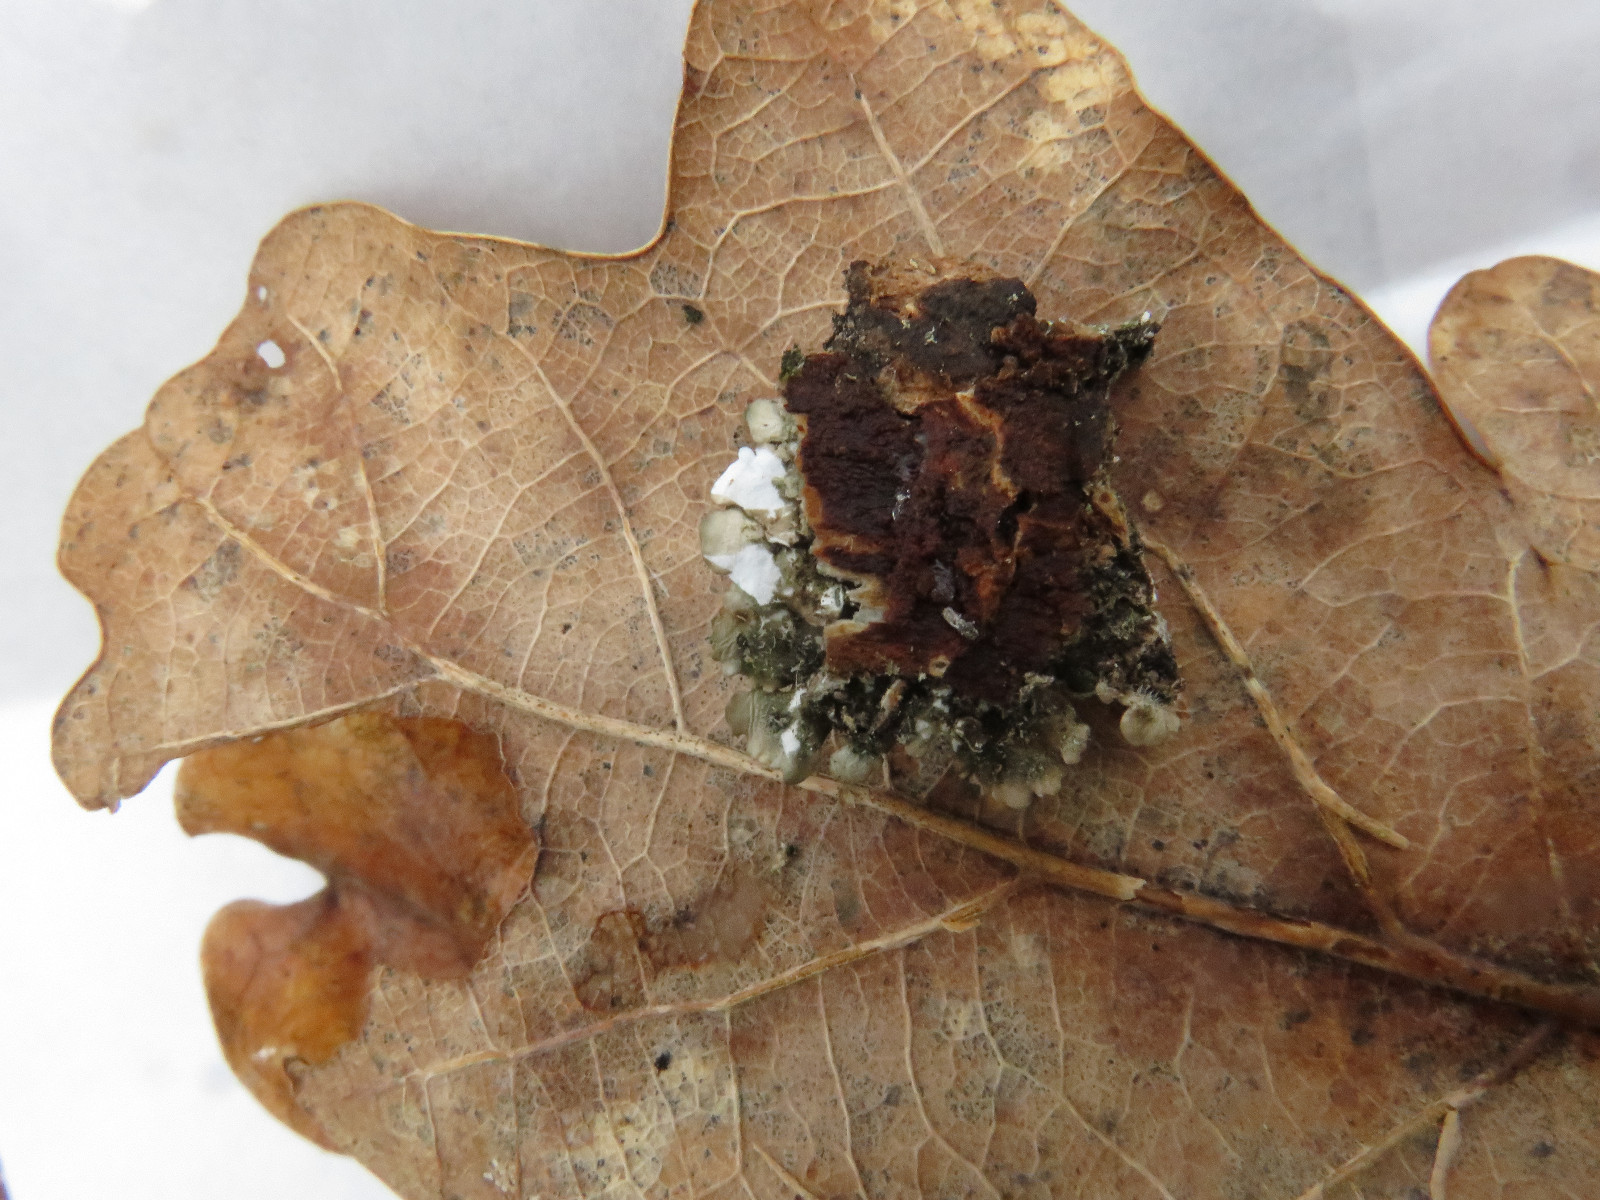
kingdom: Fungi
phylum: Ascomycota
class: Lecanoromycetes
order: Lecanorales
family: Parmeliaceae
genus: Punctelia
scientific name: Punctelia subrudecta
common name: punkt-skållav
